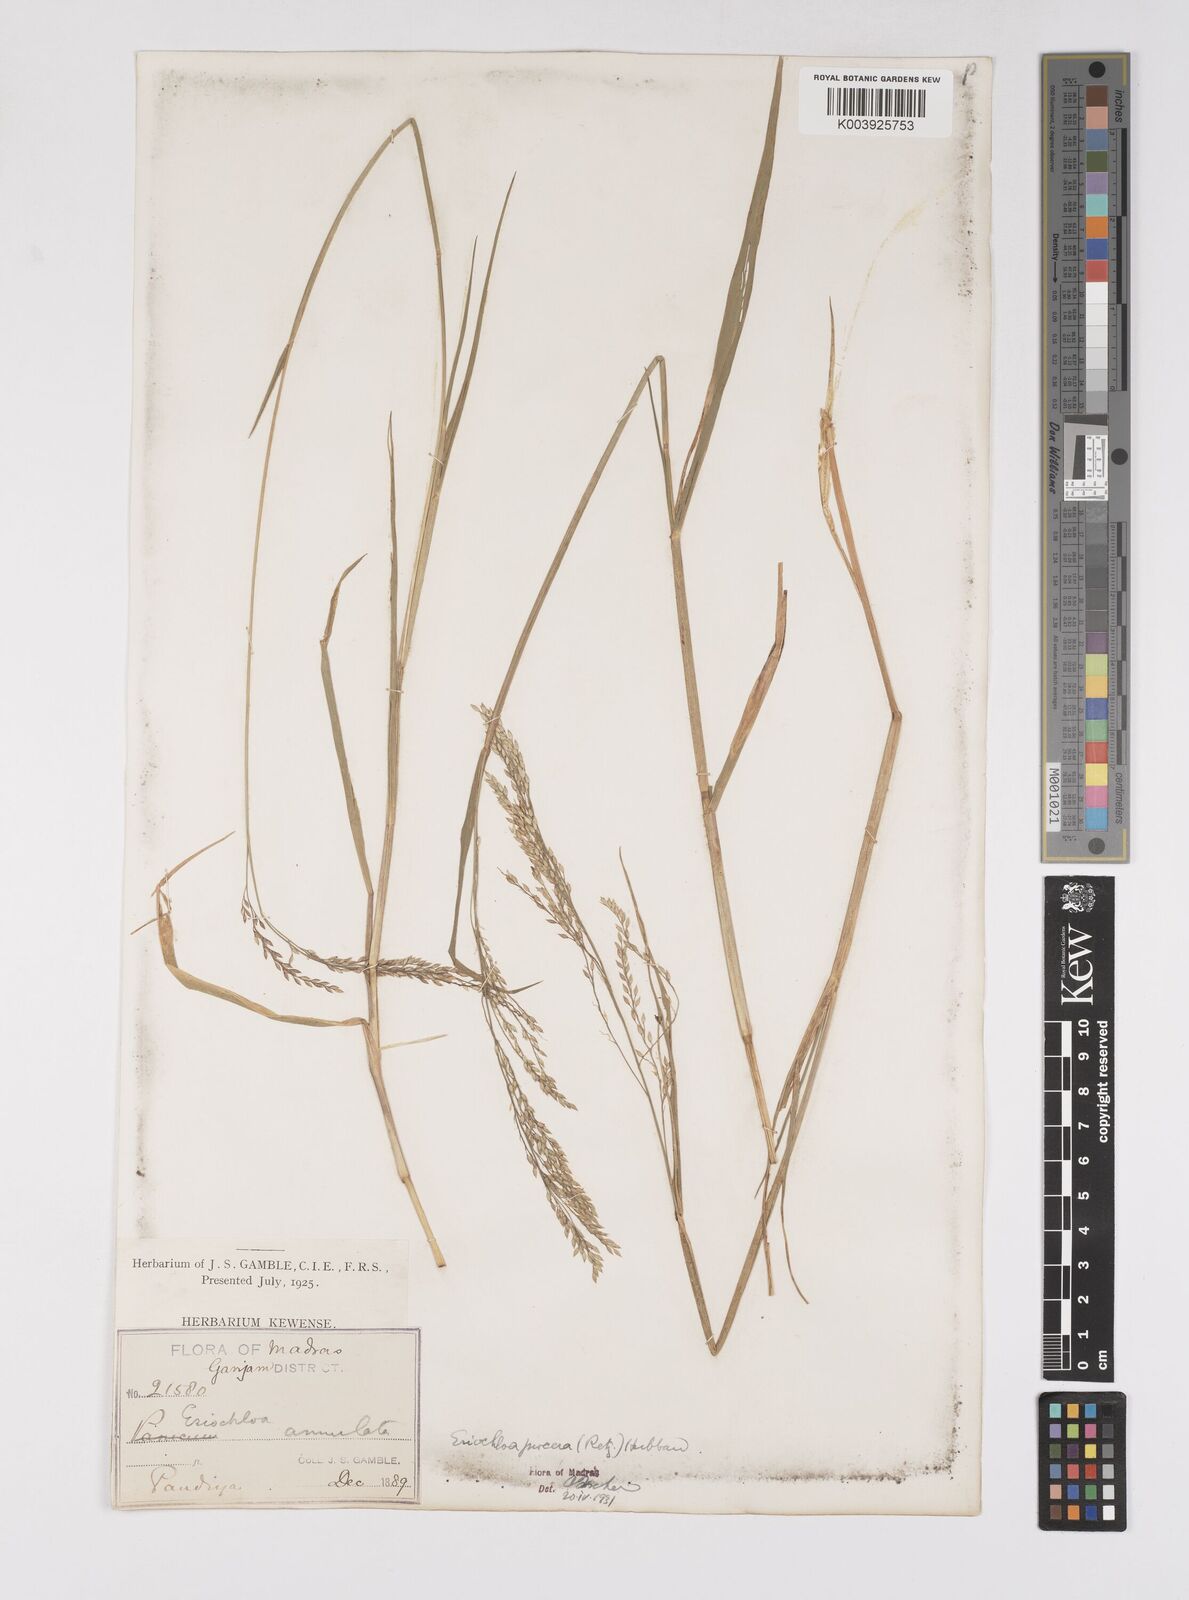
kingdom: Plantae
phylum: Tracheophyta
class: Liliopsida
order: Poales
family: Poaceae
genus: Eriochloa
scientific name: Eriochloa procera
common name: Spring grass
